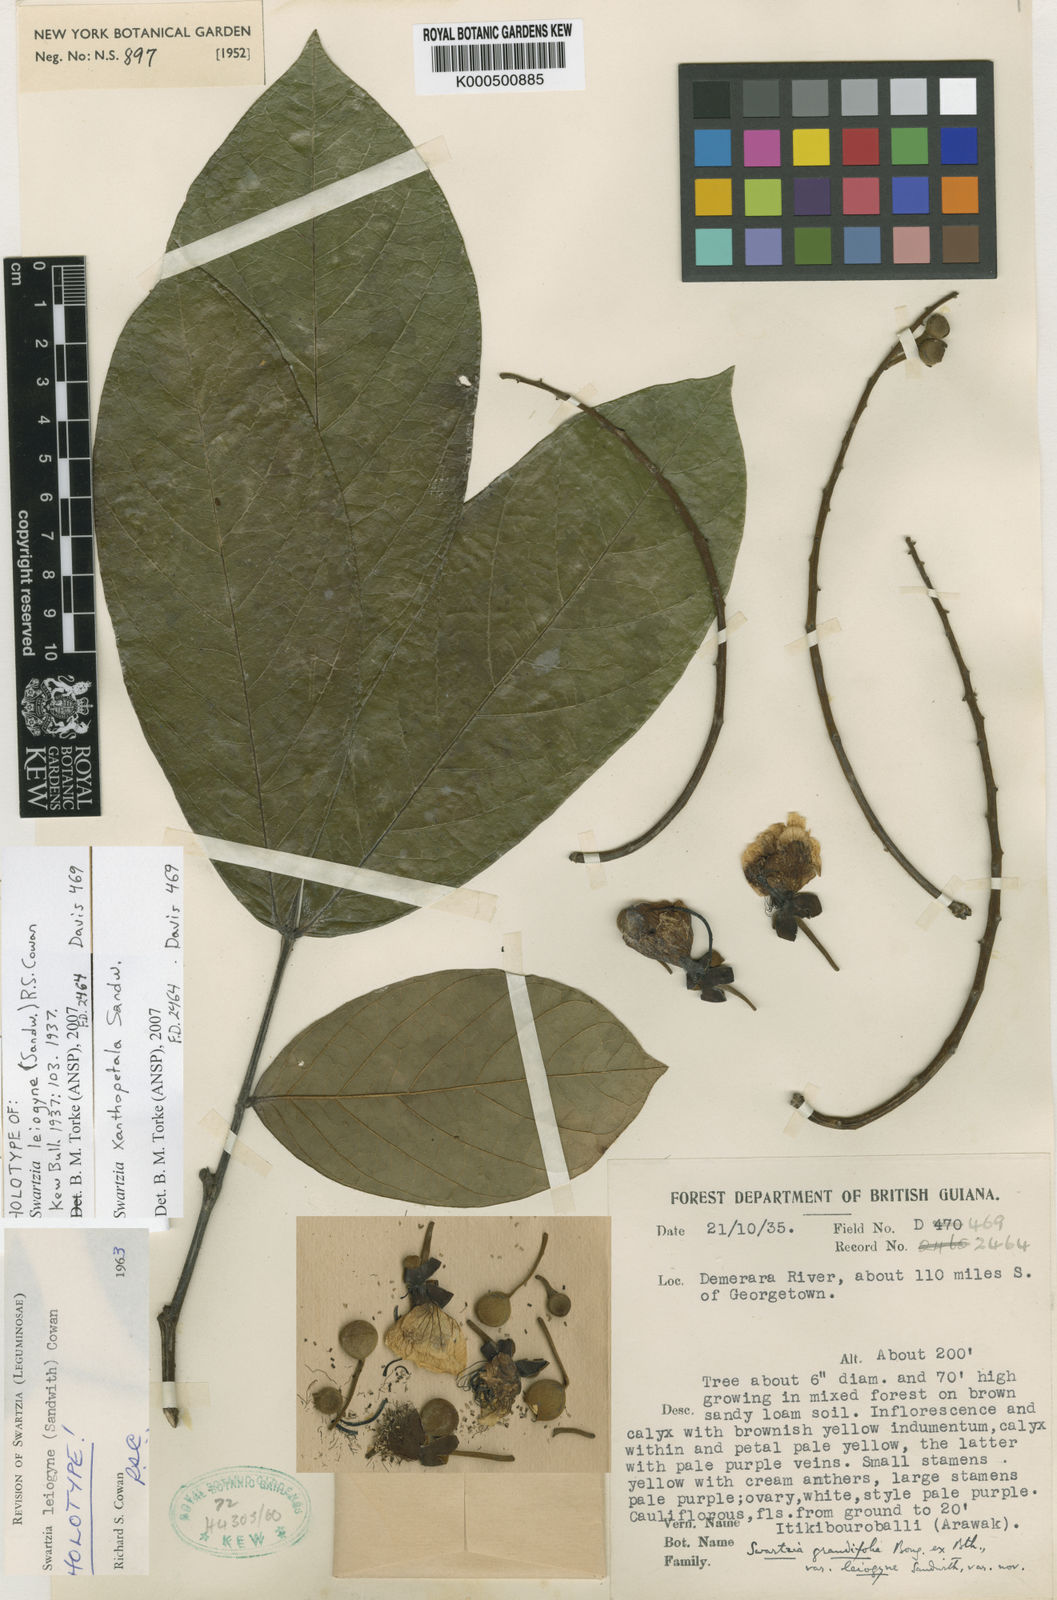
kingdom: Plantae
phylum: Tracheophyta
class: Magnoliopsida
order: Fabales
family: Fabaceae
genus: Swartzia
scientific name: Swartzia xanthopetala
